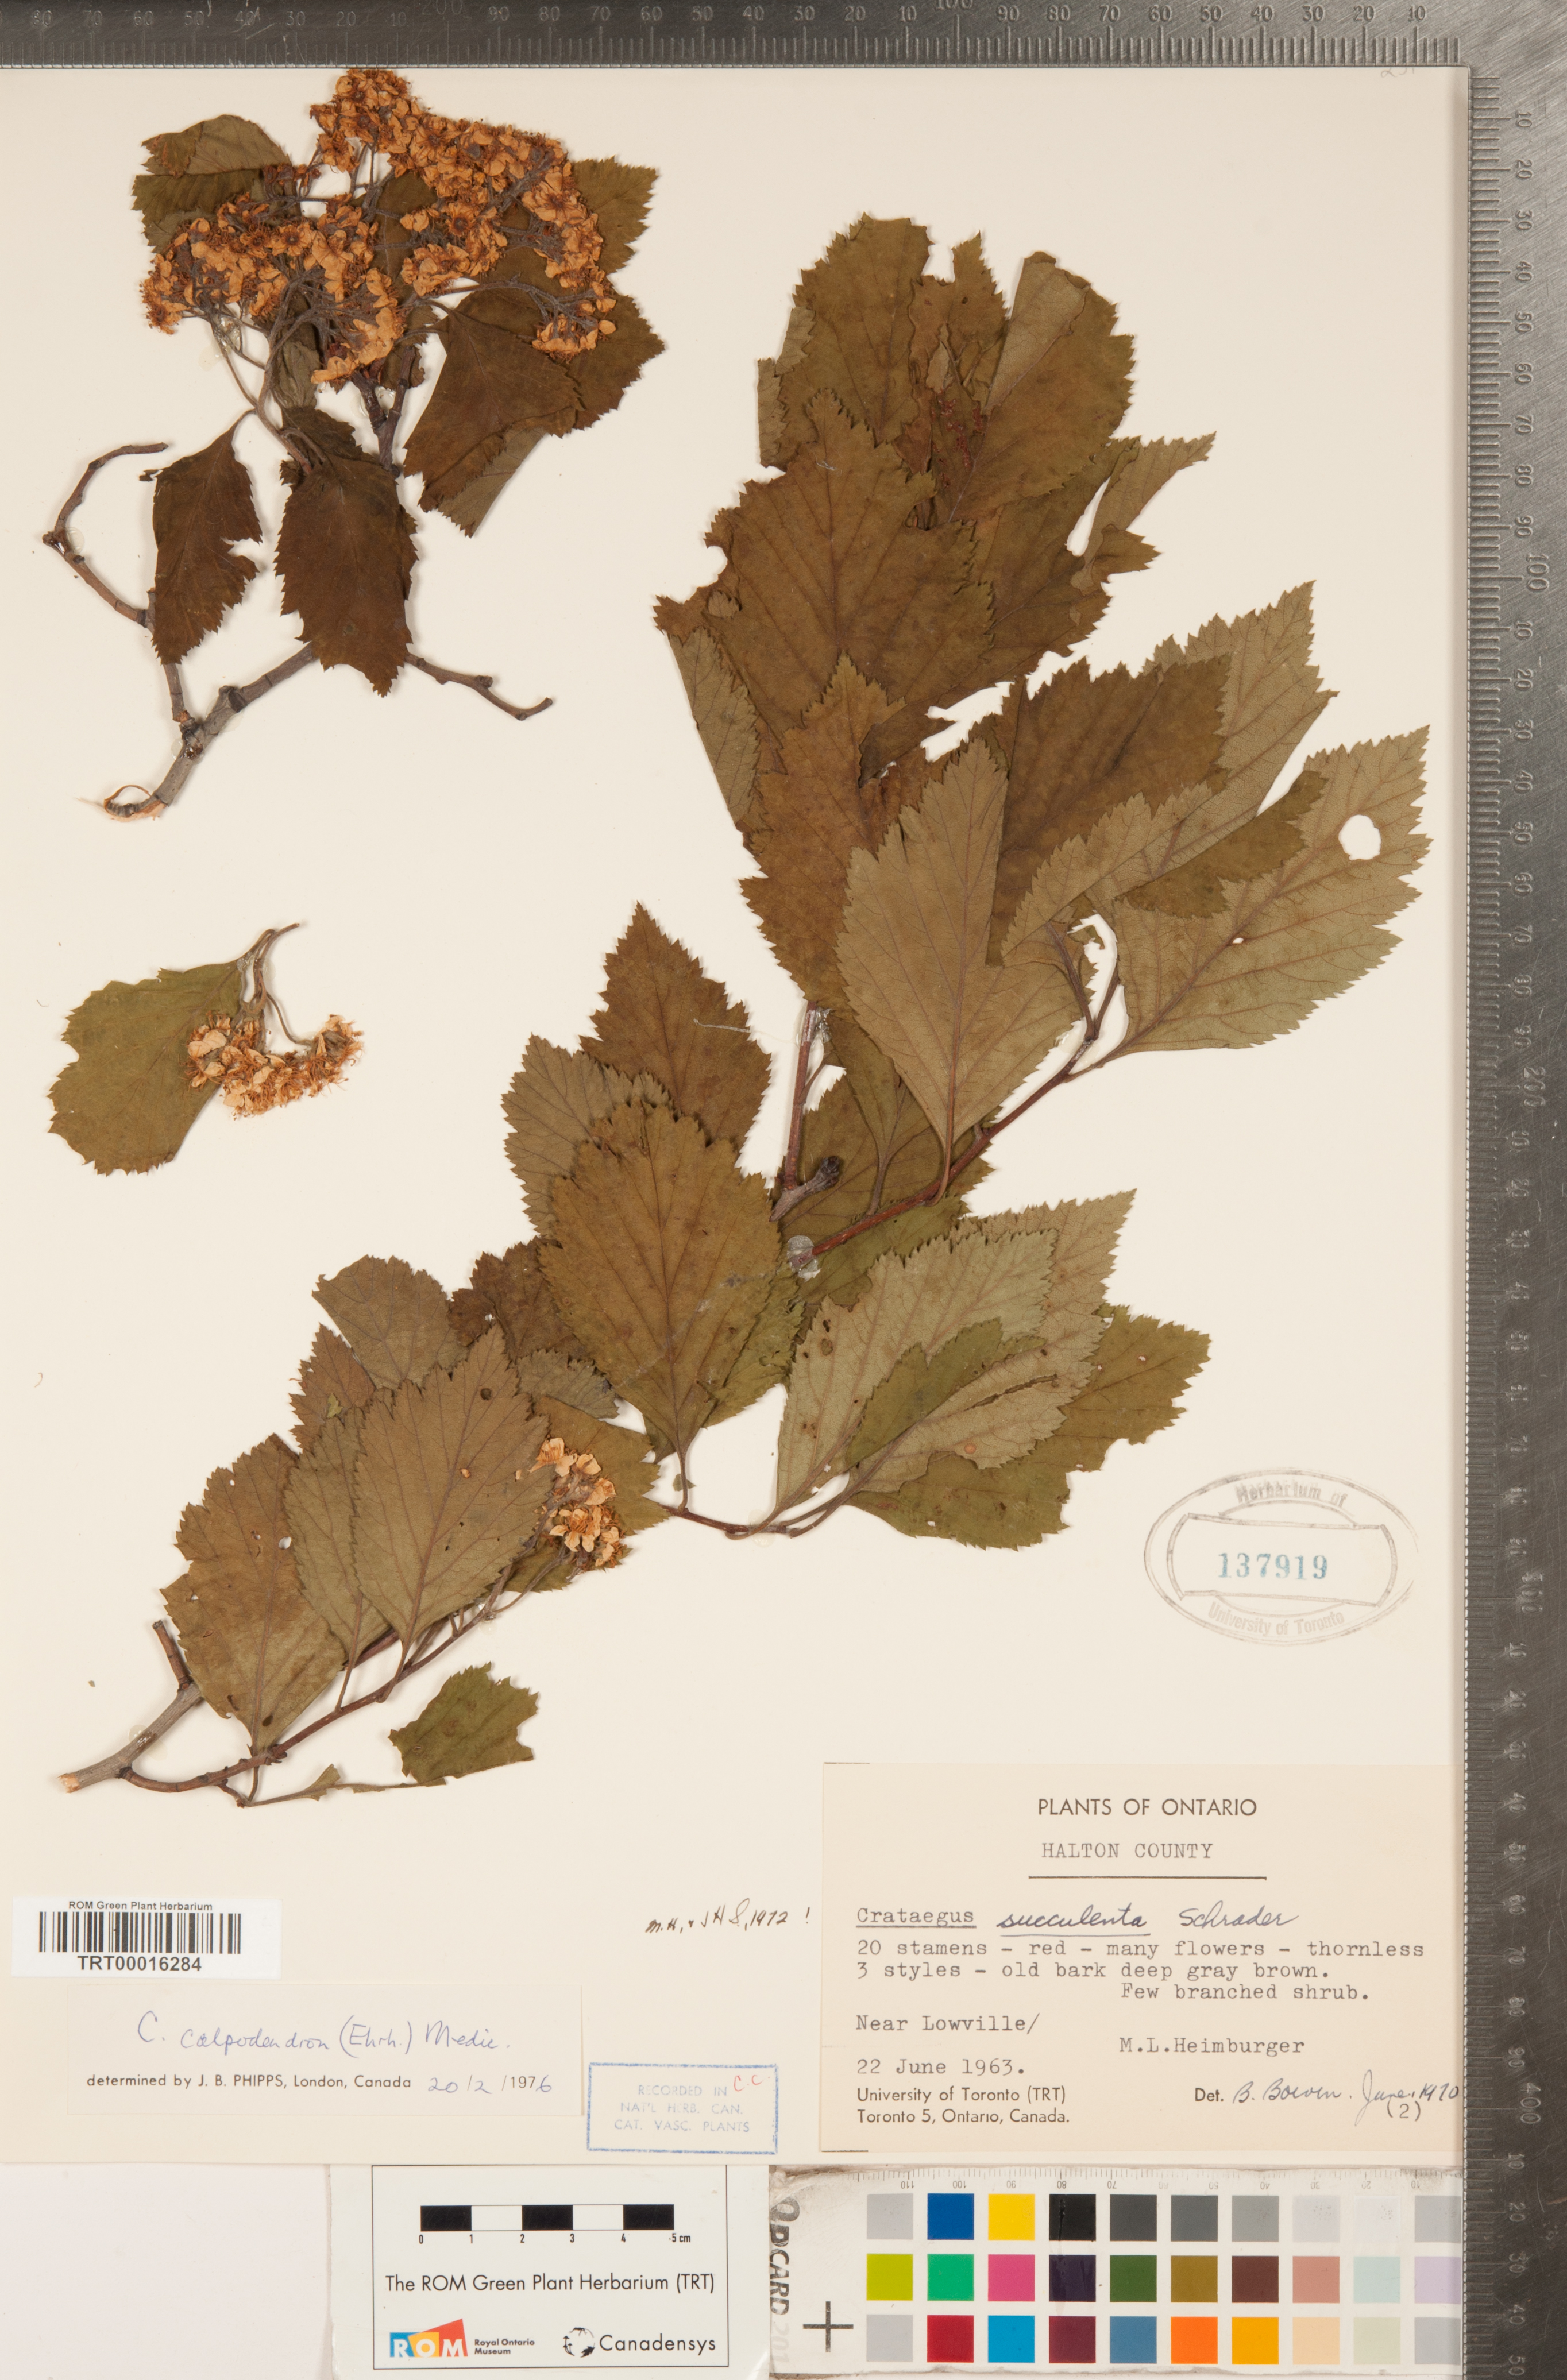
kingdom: Plantae
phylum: Tracheophyta
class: Magnoliopsida
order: Rosales
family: Rosaceae
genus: Crataegus
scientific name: Crataegus calpodendron
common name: Pear hawthorn
